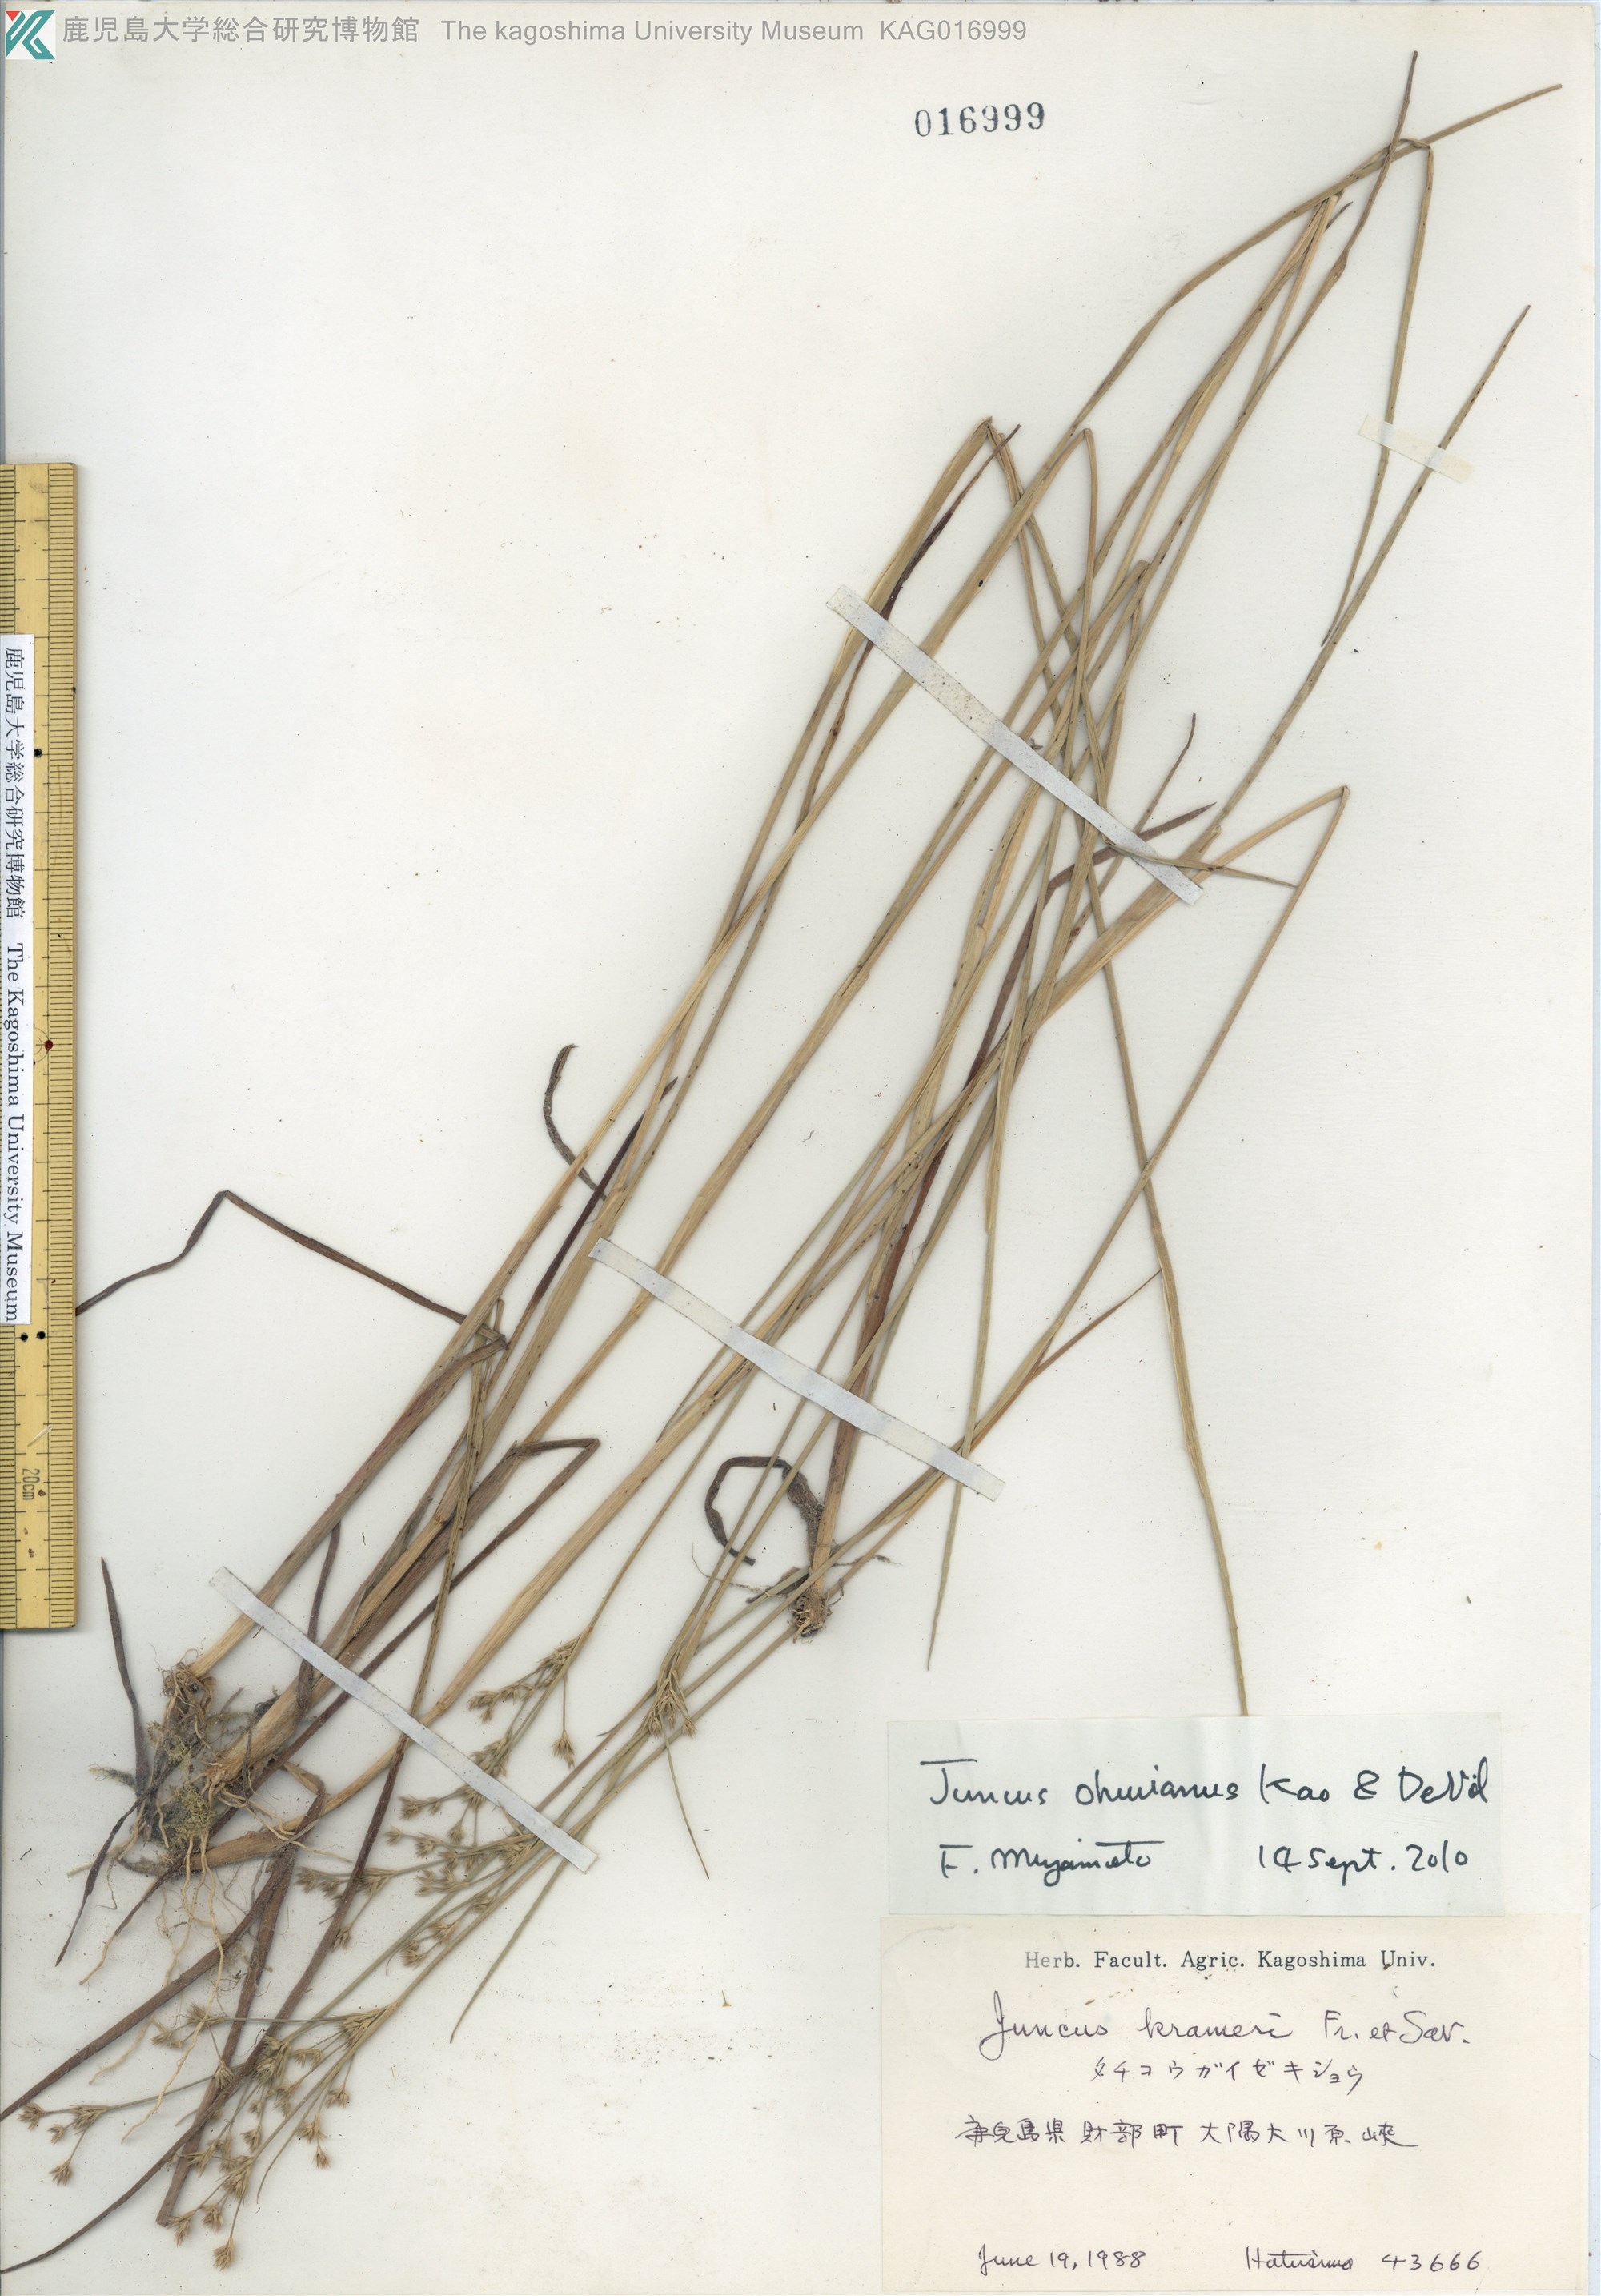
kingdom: Plantae
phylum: Tracheophyta
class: Liliopsida
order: Poales
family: Juncaceae
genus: Juncus
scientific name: Juncus wallichianus
